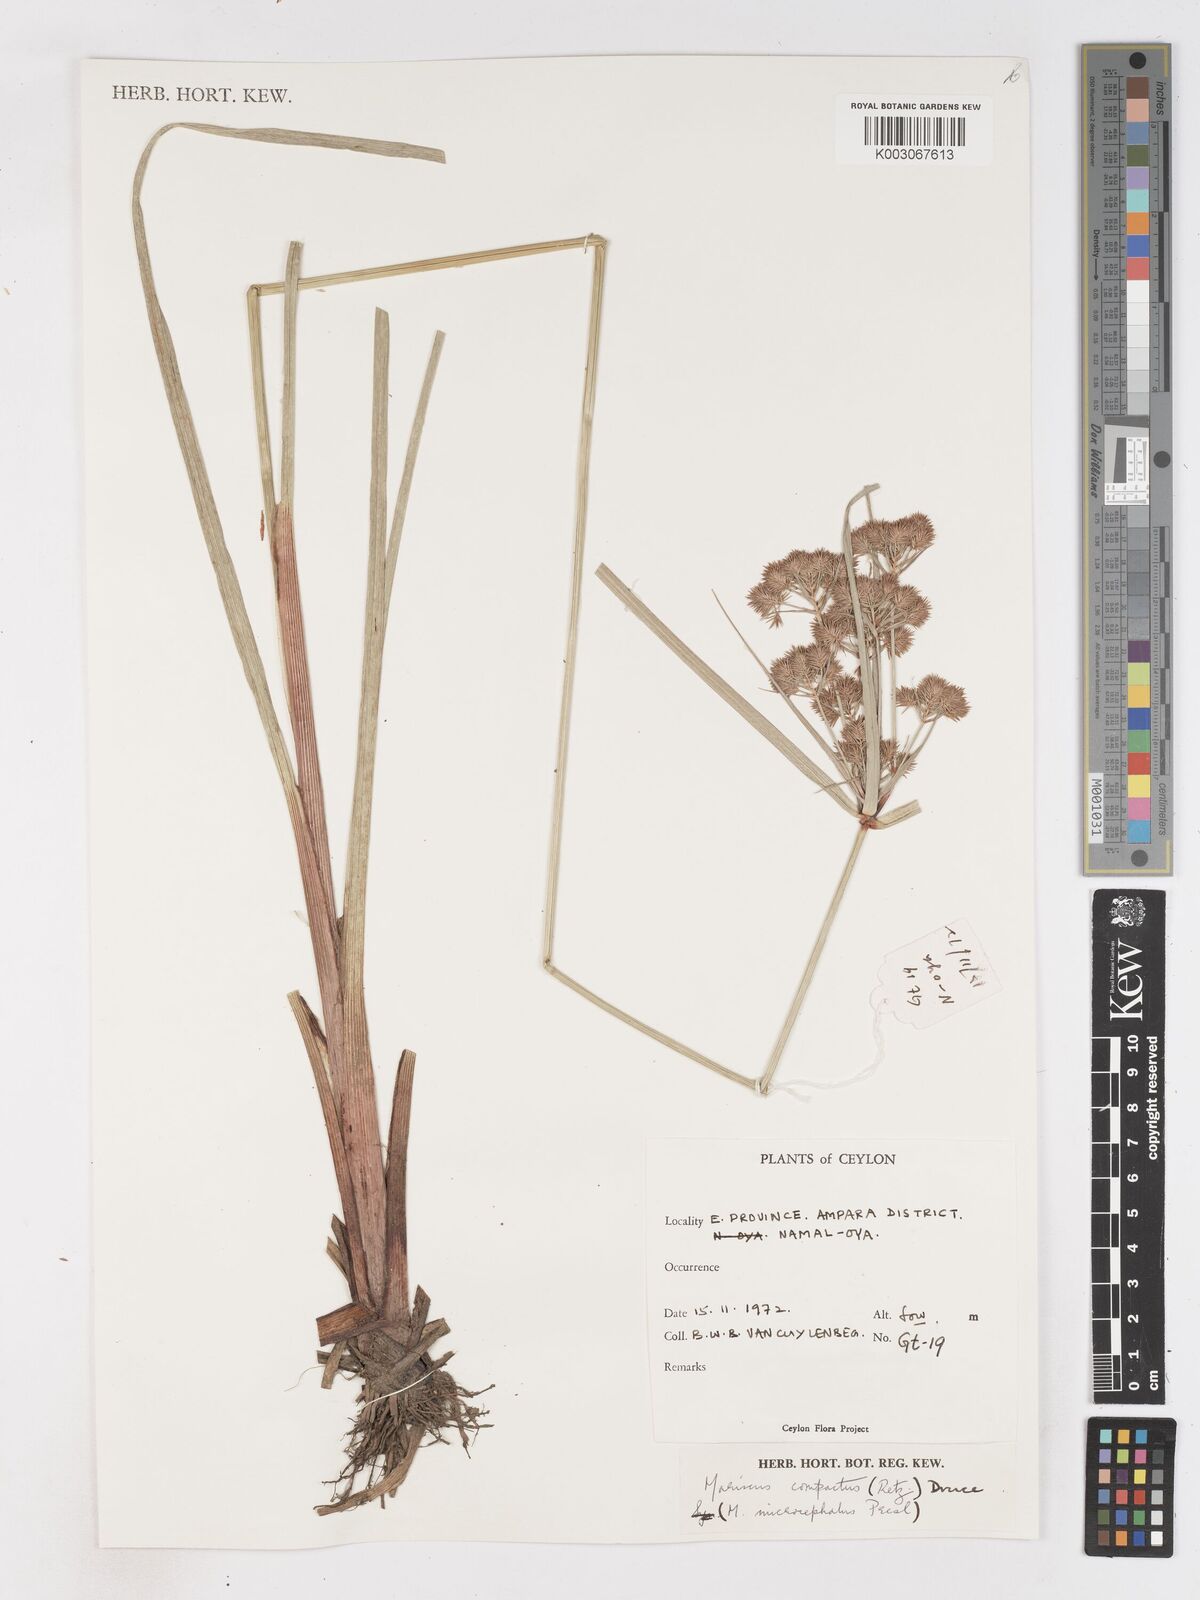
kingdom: Plantae
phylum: Tracheophyta
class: Liliopsida
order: Poales
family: Cyperaceae
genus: Cyperus
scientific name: Cyperus compactus
